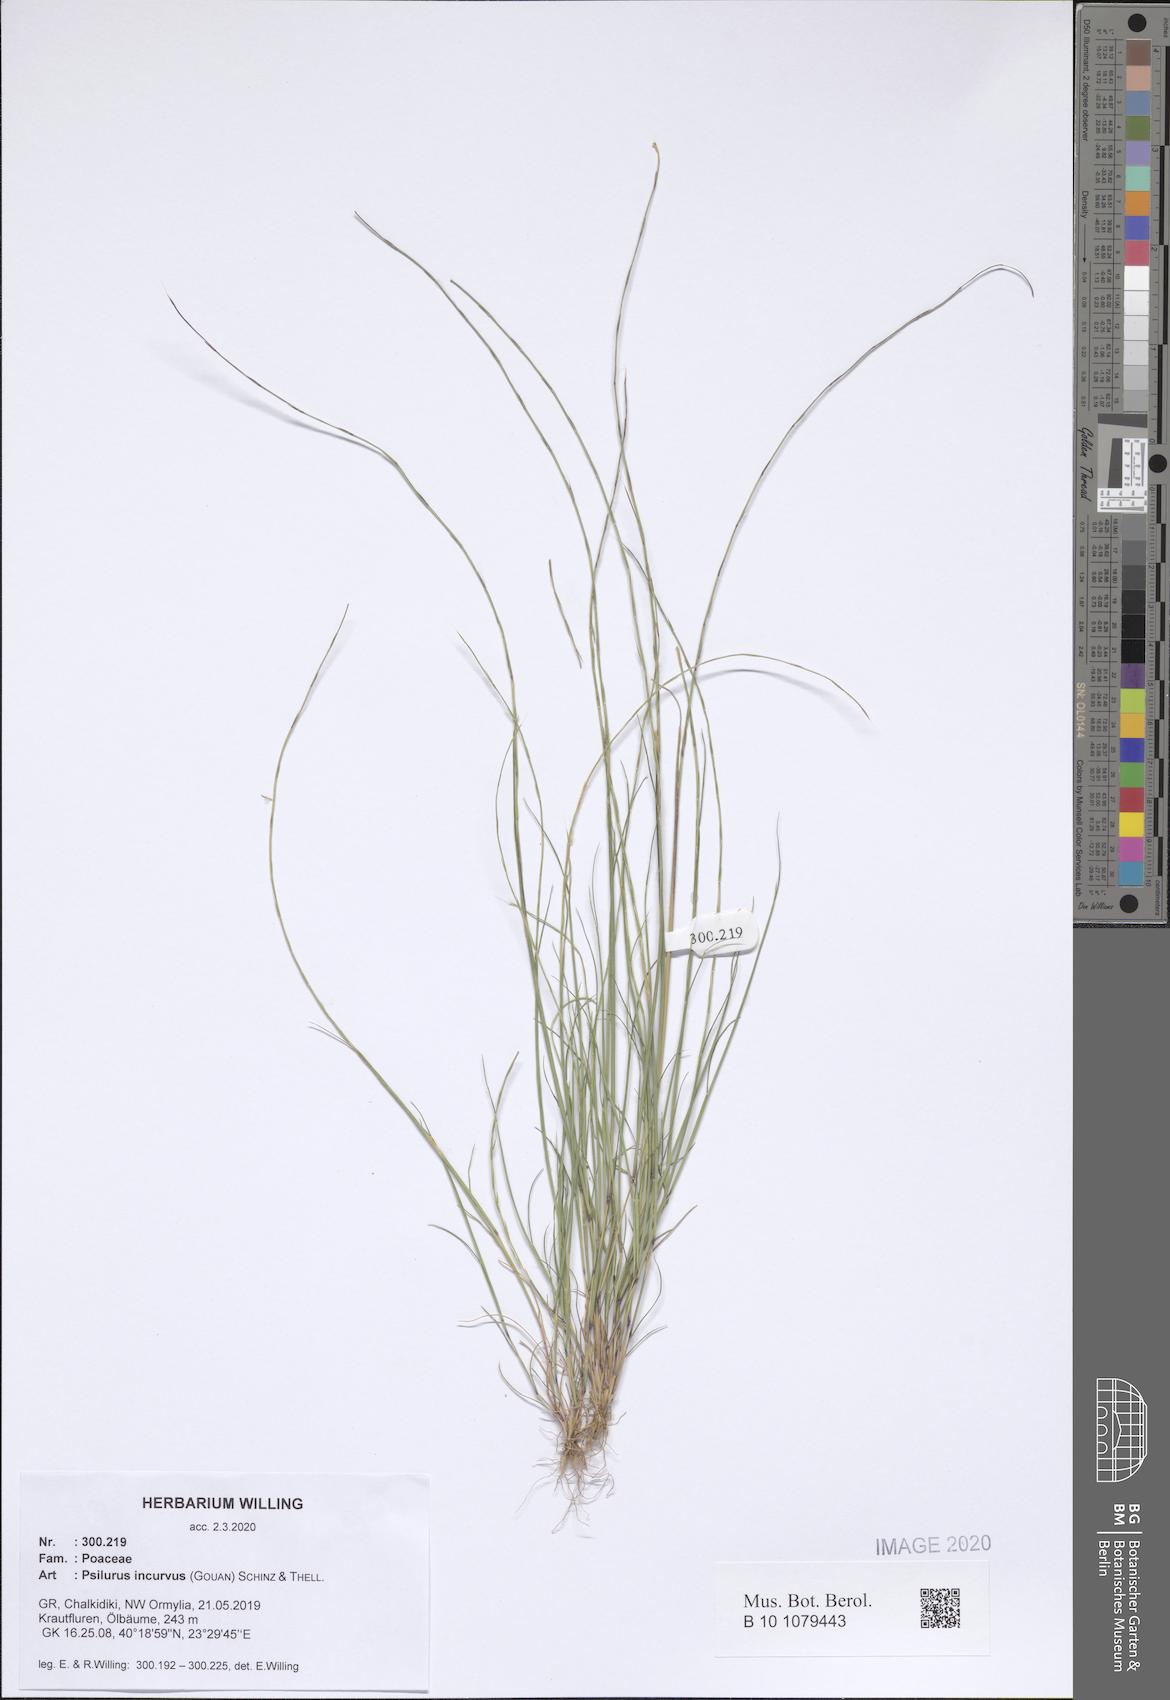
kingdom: Plantae
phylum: Tracheophyta
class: Liliopsida
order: Poales
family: Poaceae
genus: Festuca
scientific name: Festuca incurva
